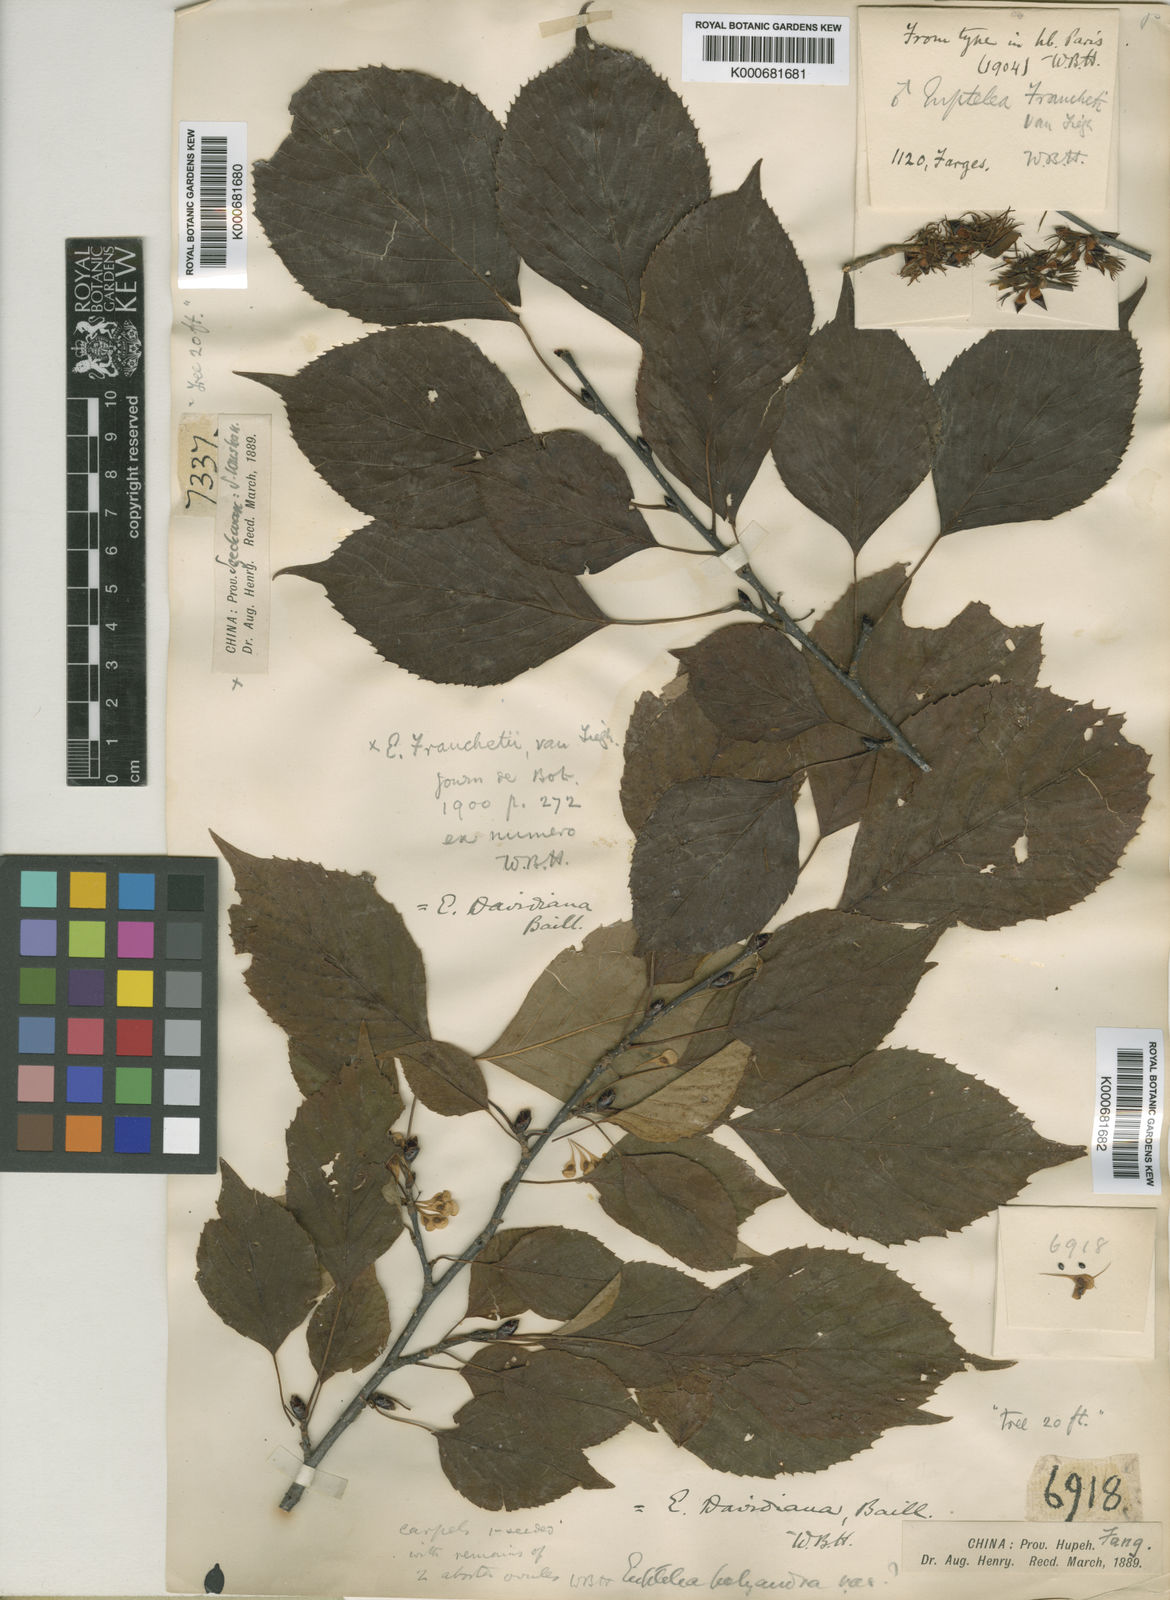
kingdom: Plantae
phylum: Tracheophyta
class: Magnoliopsida
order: Ranunculales
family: Eupteleaceae
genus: Euptelea
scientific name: Euptelea pleiosperma
